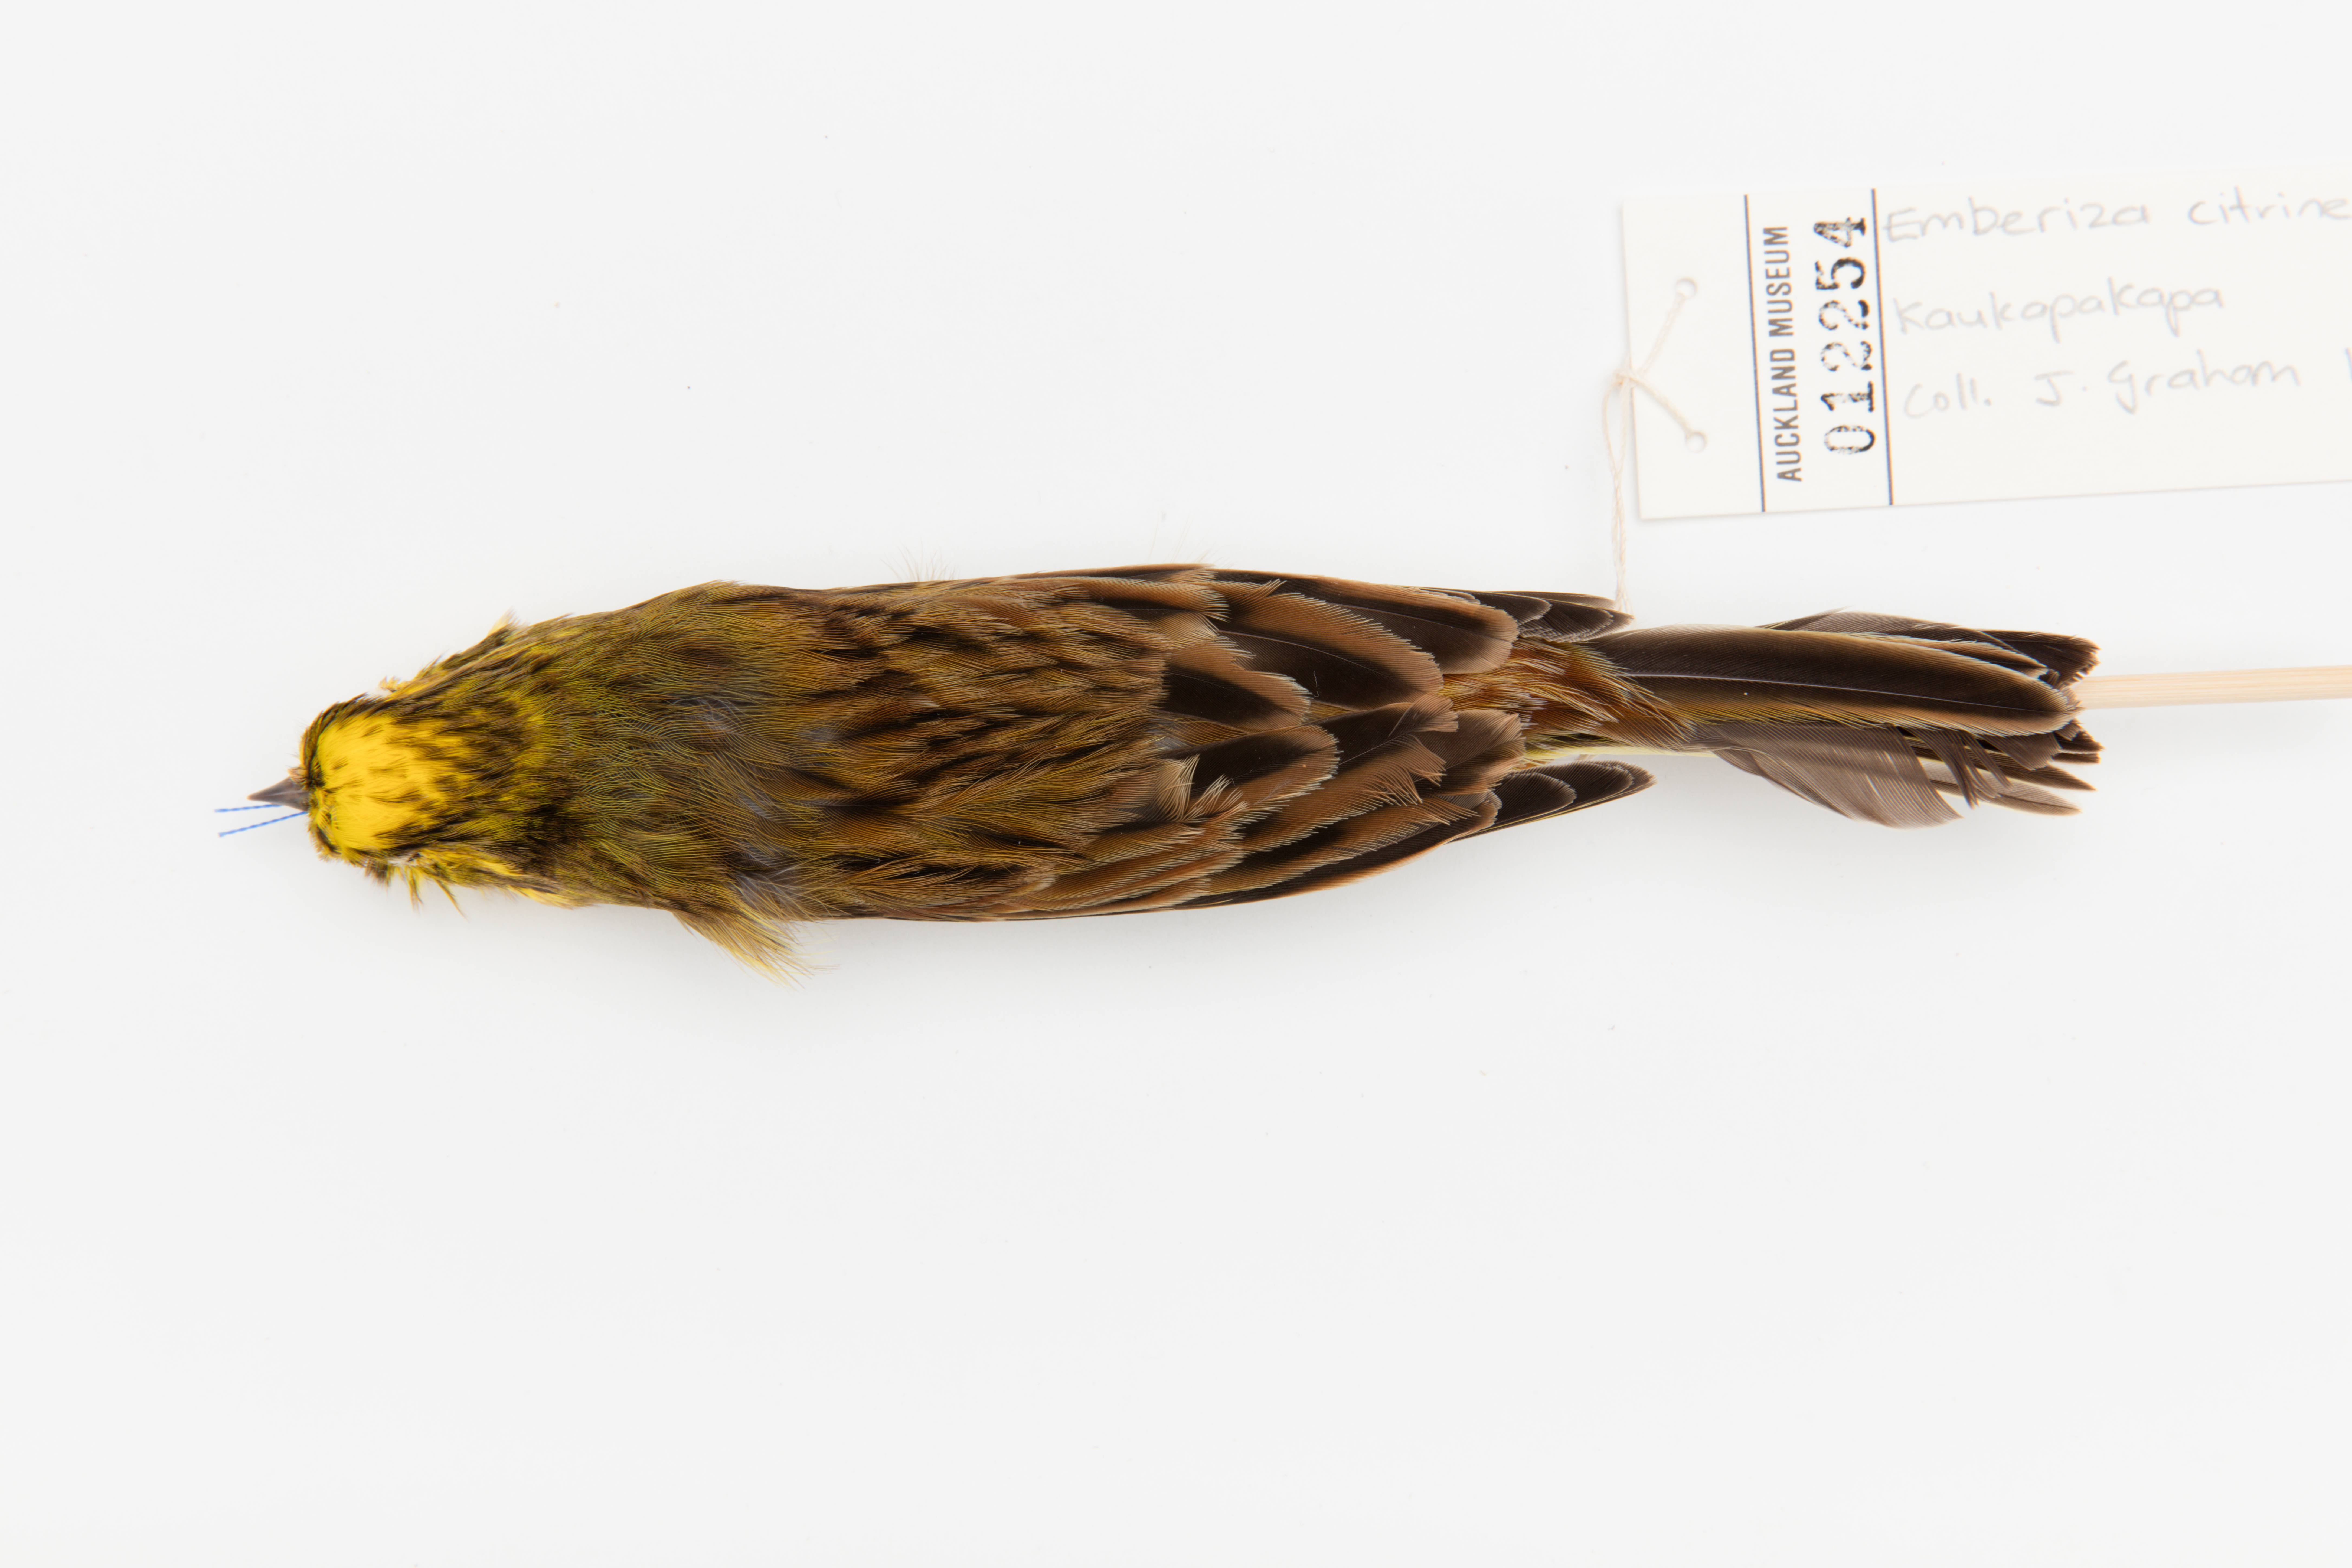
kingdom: Animalia
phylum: Chordata
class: Aves
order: Passeriformes
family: Emberizidae
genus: Emberiza
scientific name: Emberiza citrinella
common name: Yellowhammer
